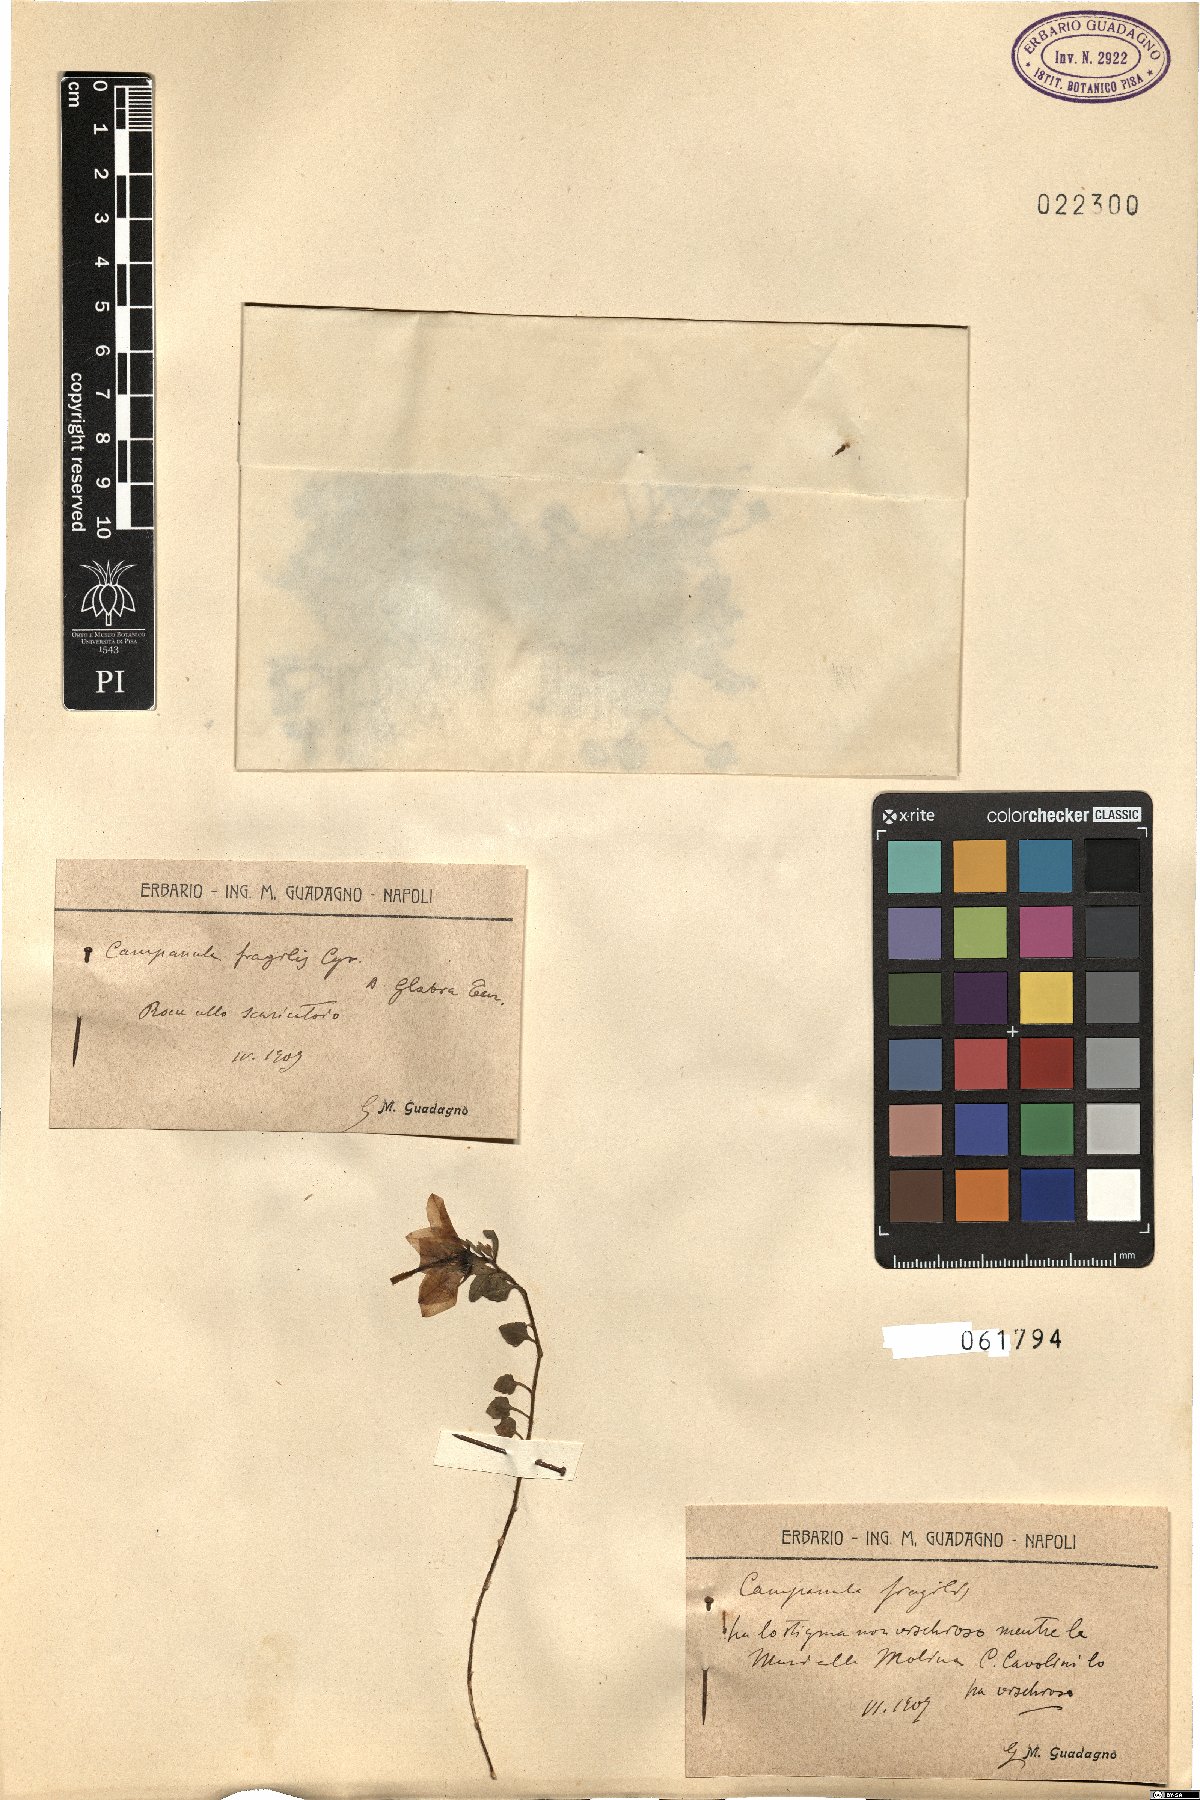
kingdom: Plantae
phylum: Tracheophyta
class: Magnoliopsida
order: Asterales
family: Campanulaceae
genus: Campanula
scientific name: Campanula fragilis
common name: Italian bellflower
